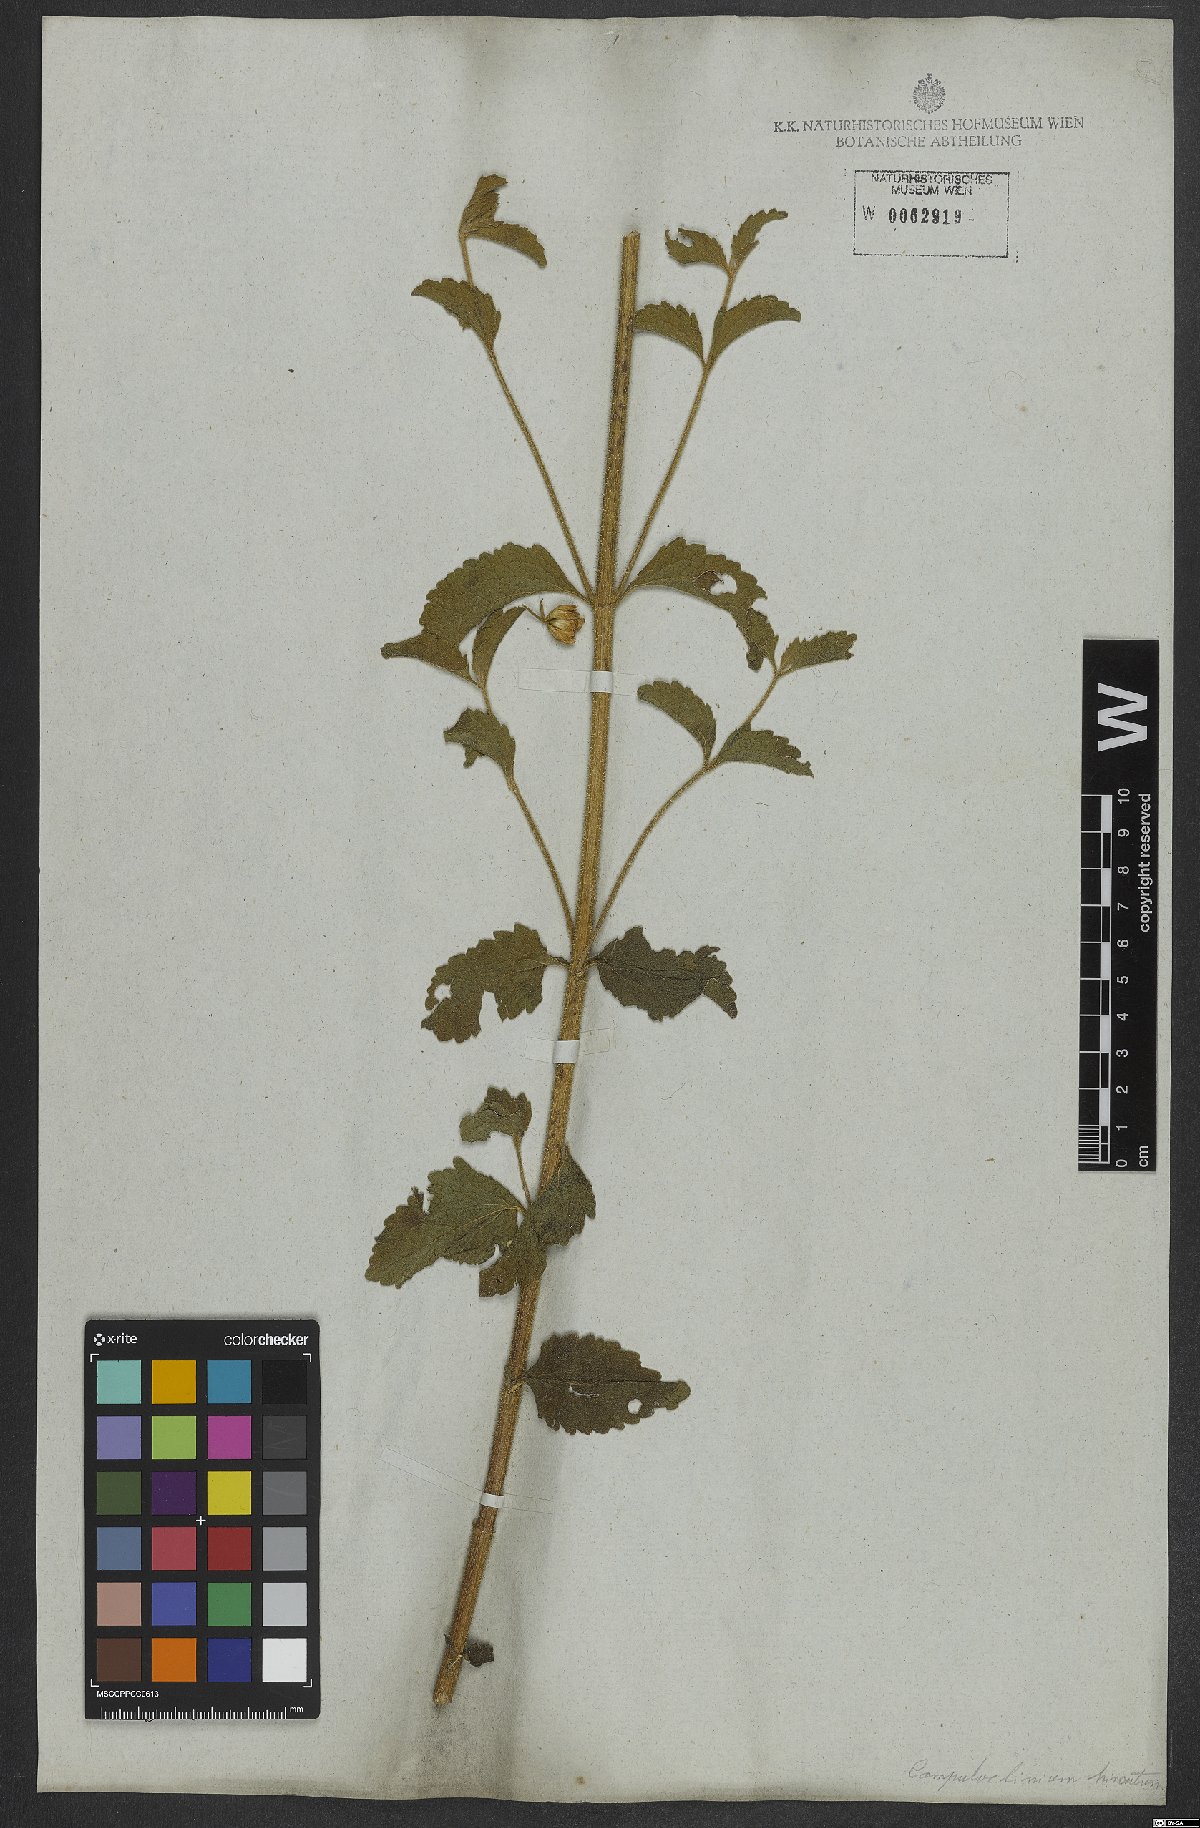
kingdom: Plantae
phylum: Tracheophyta
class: Magnoliopsida
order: Asterales
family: Asteraceae
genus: Campuloclinium
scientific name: Campuloclinium hirsutum
